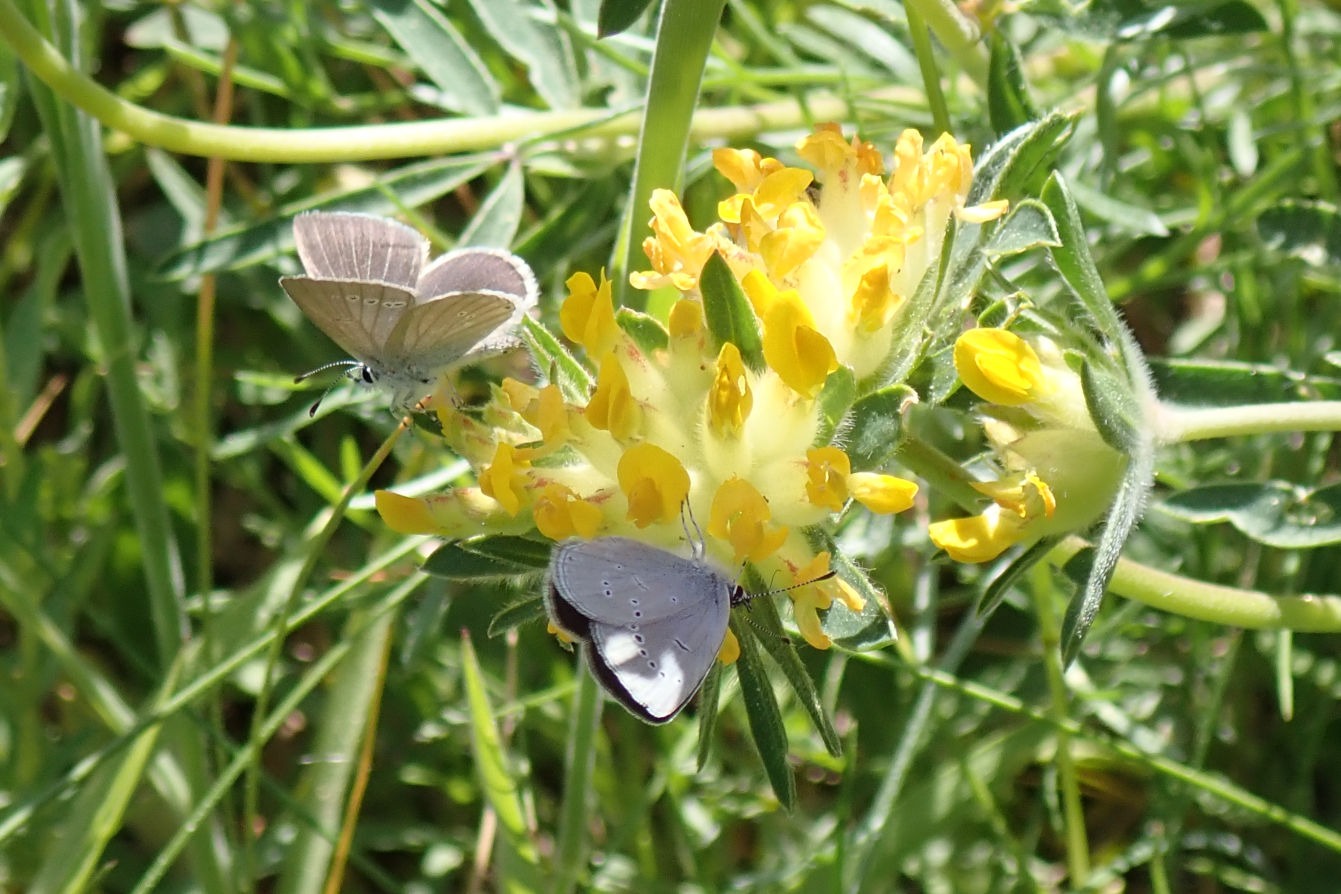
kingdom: Animalia
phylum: Arthropoda
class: Insecta
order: Lepidoptera
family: Lycaenidae
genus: Cupido
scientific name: Cupido minimus
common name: Dværgblåfugl
